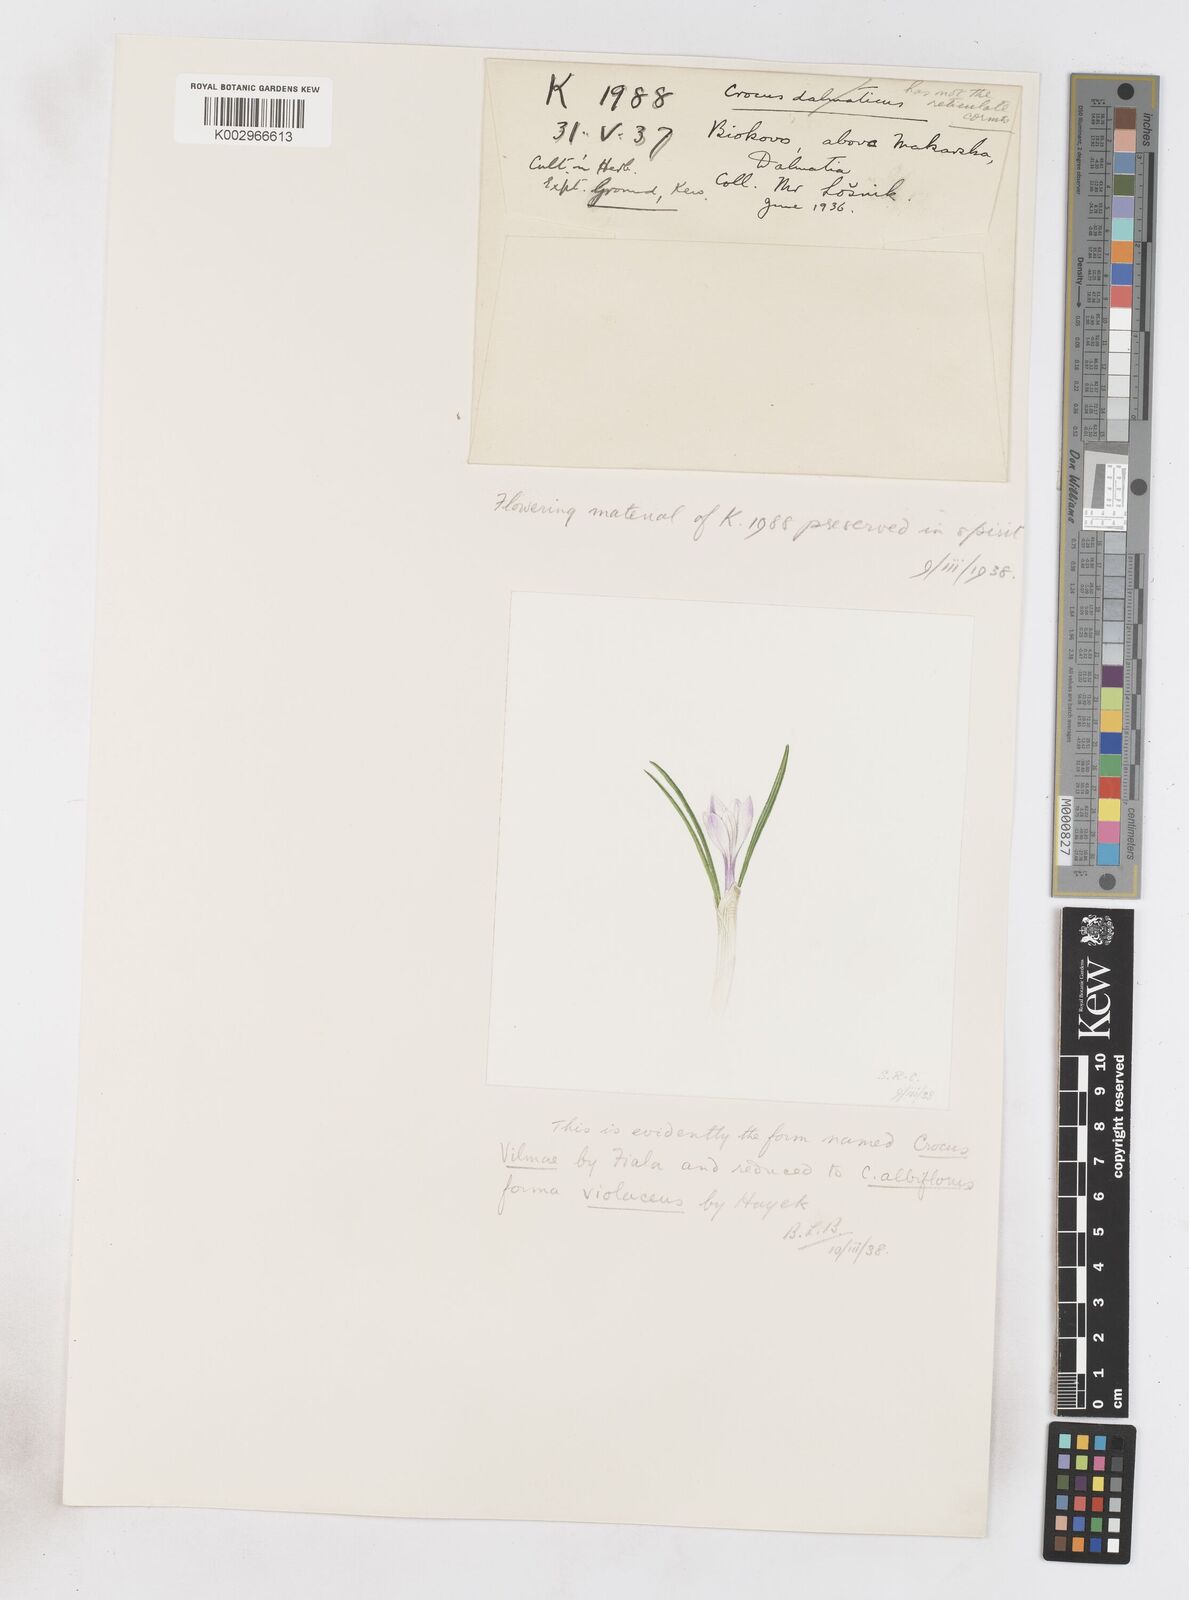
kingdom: Plantae
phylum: Tracheophyta
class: Liliopsida
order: Asparagales
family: Iridaceae
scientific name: Iridaceae
